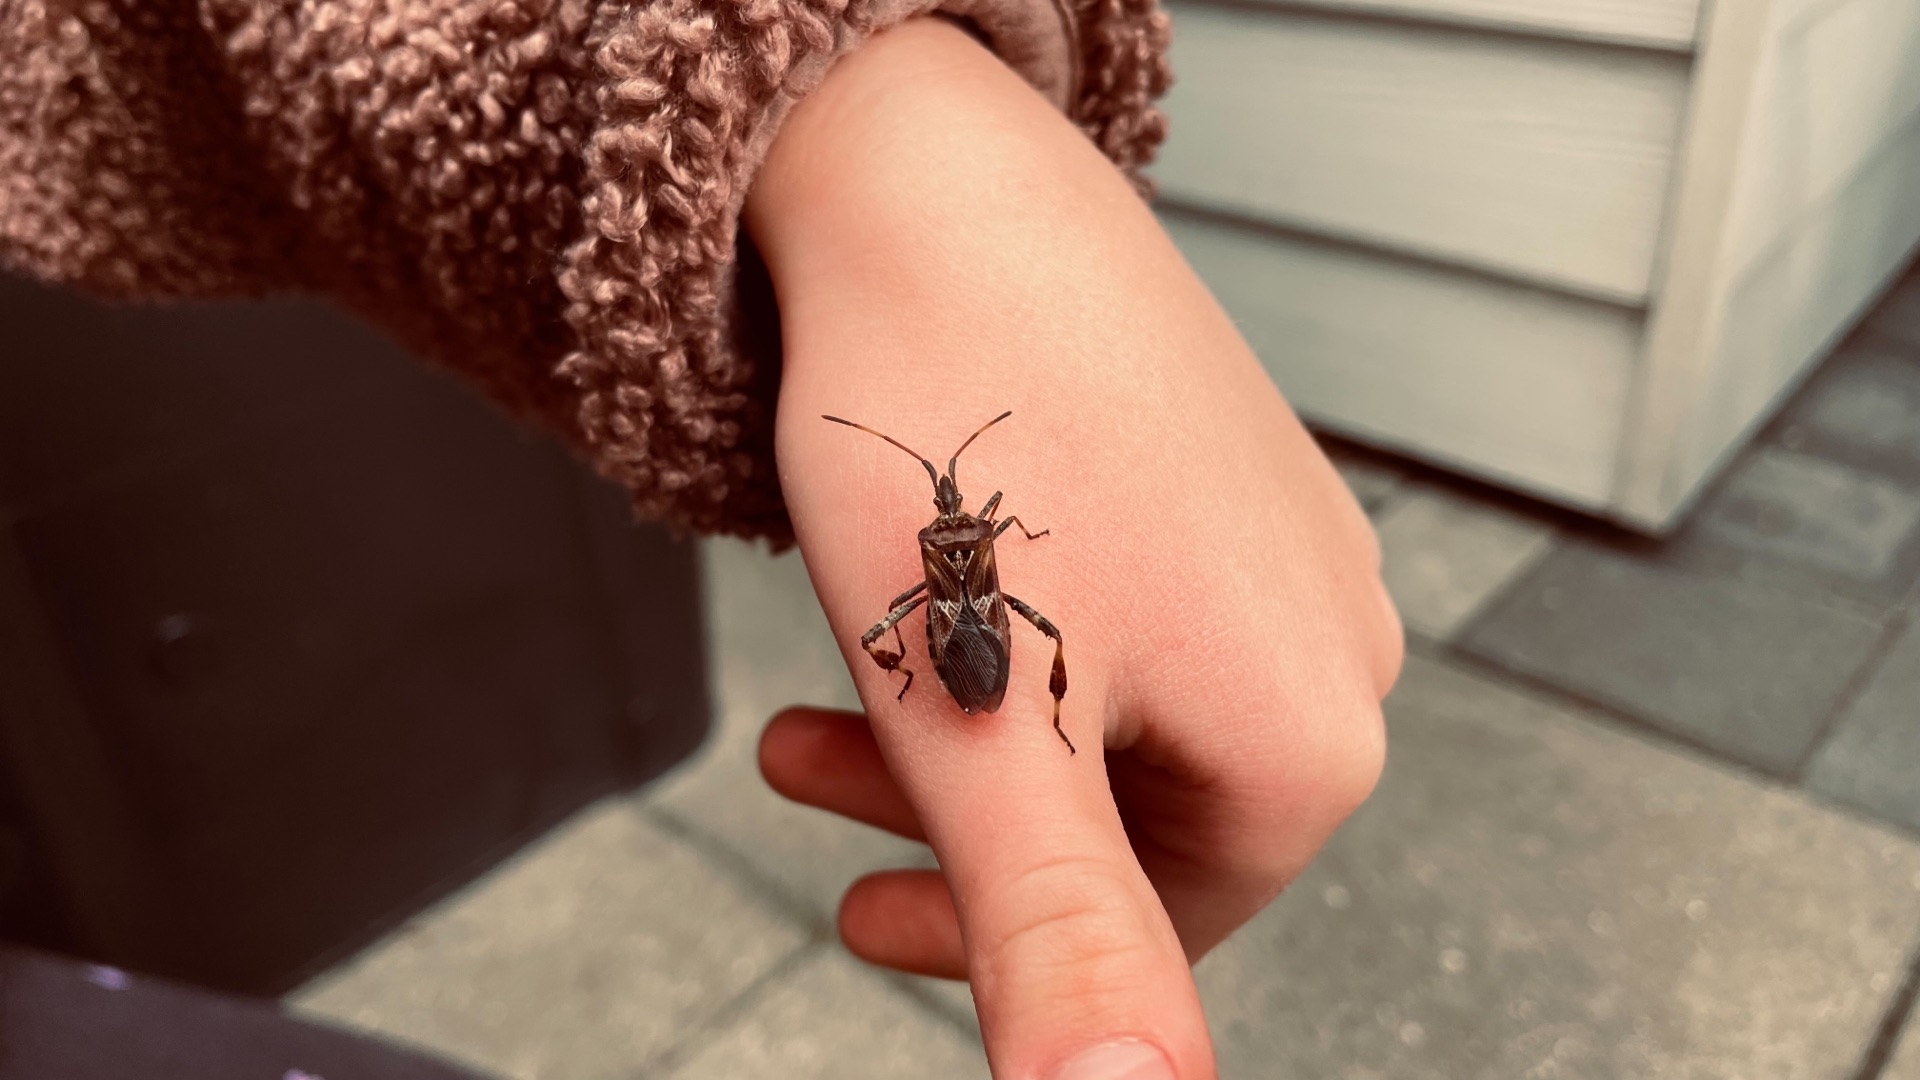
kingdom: Animalia
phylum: Arthropoda
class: Insecta
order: Hemiptera
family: Coreidae
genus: Leptoglossus
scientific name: Leptoglossus occidentalis
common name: Amerikansk fyrretæge
